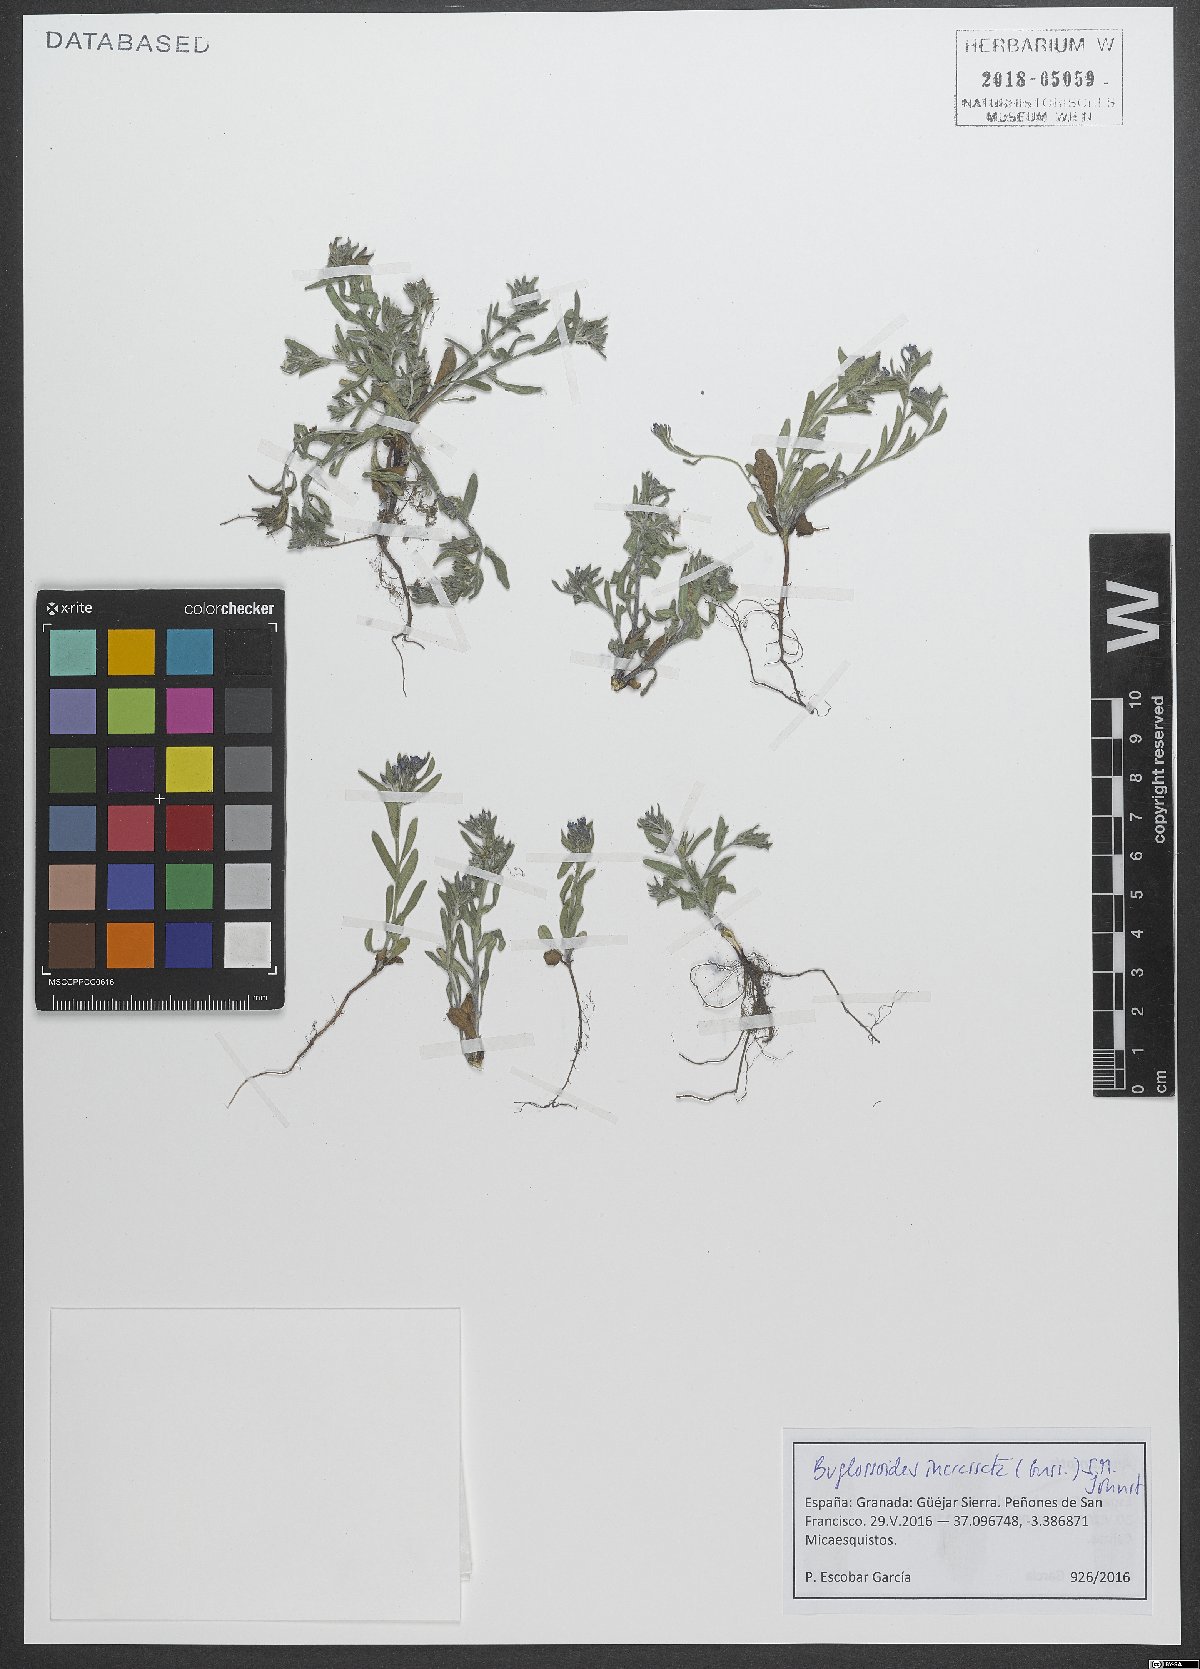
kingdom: Plantae
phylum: Tracheophyta
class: Magnoliopsida
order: Boraginales
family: Boraginaceae
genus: Buglossoides
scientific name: Buglossoides incrassata
